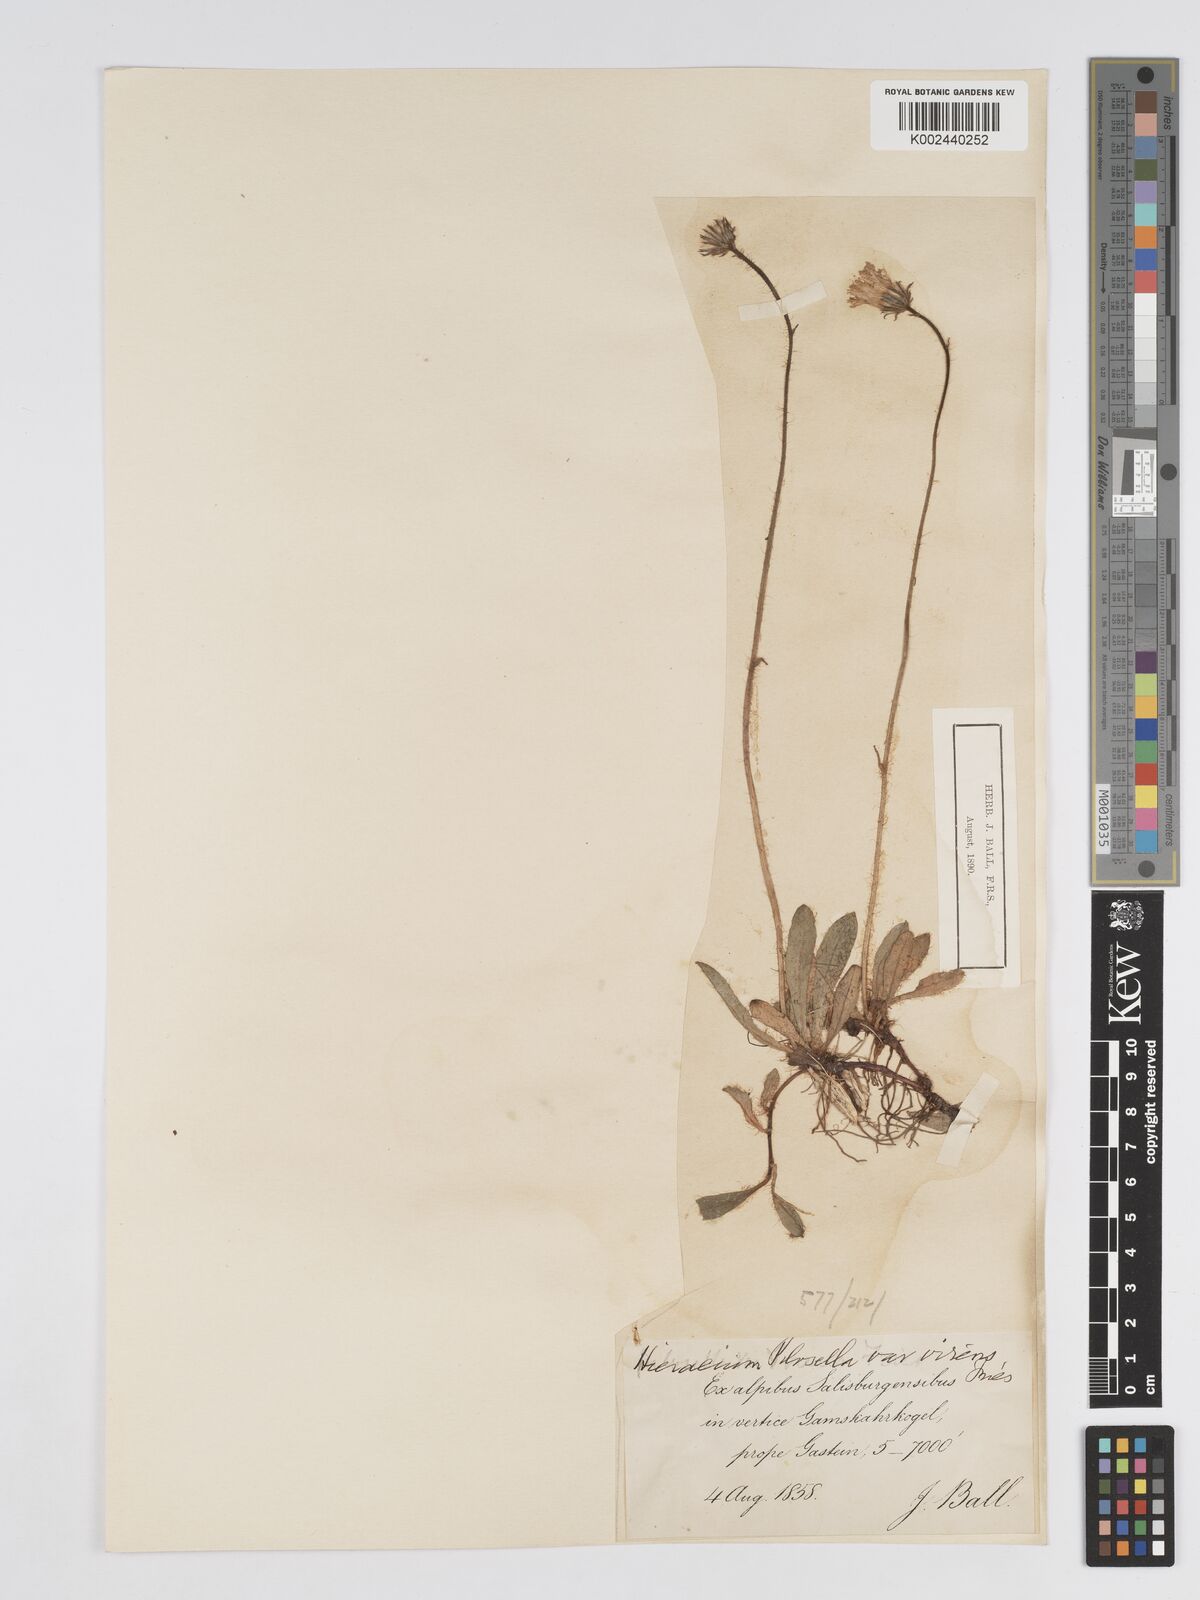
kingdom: Plantae
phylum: Tracheophyta
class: Magnoliopsida
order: Asterales
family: Asteraceae
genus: Pilosella
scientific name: Pilosella officinarum
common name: Mouse-ear hawkweed
